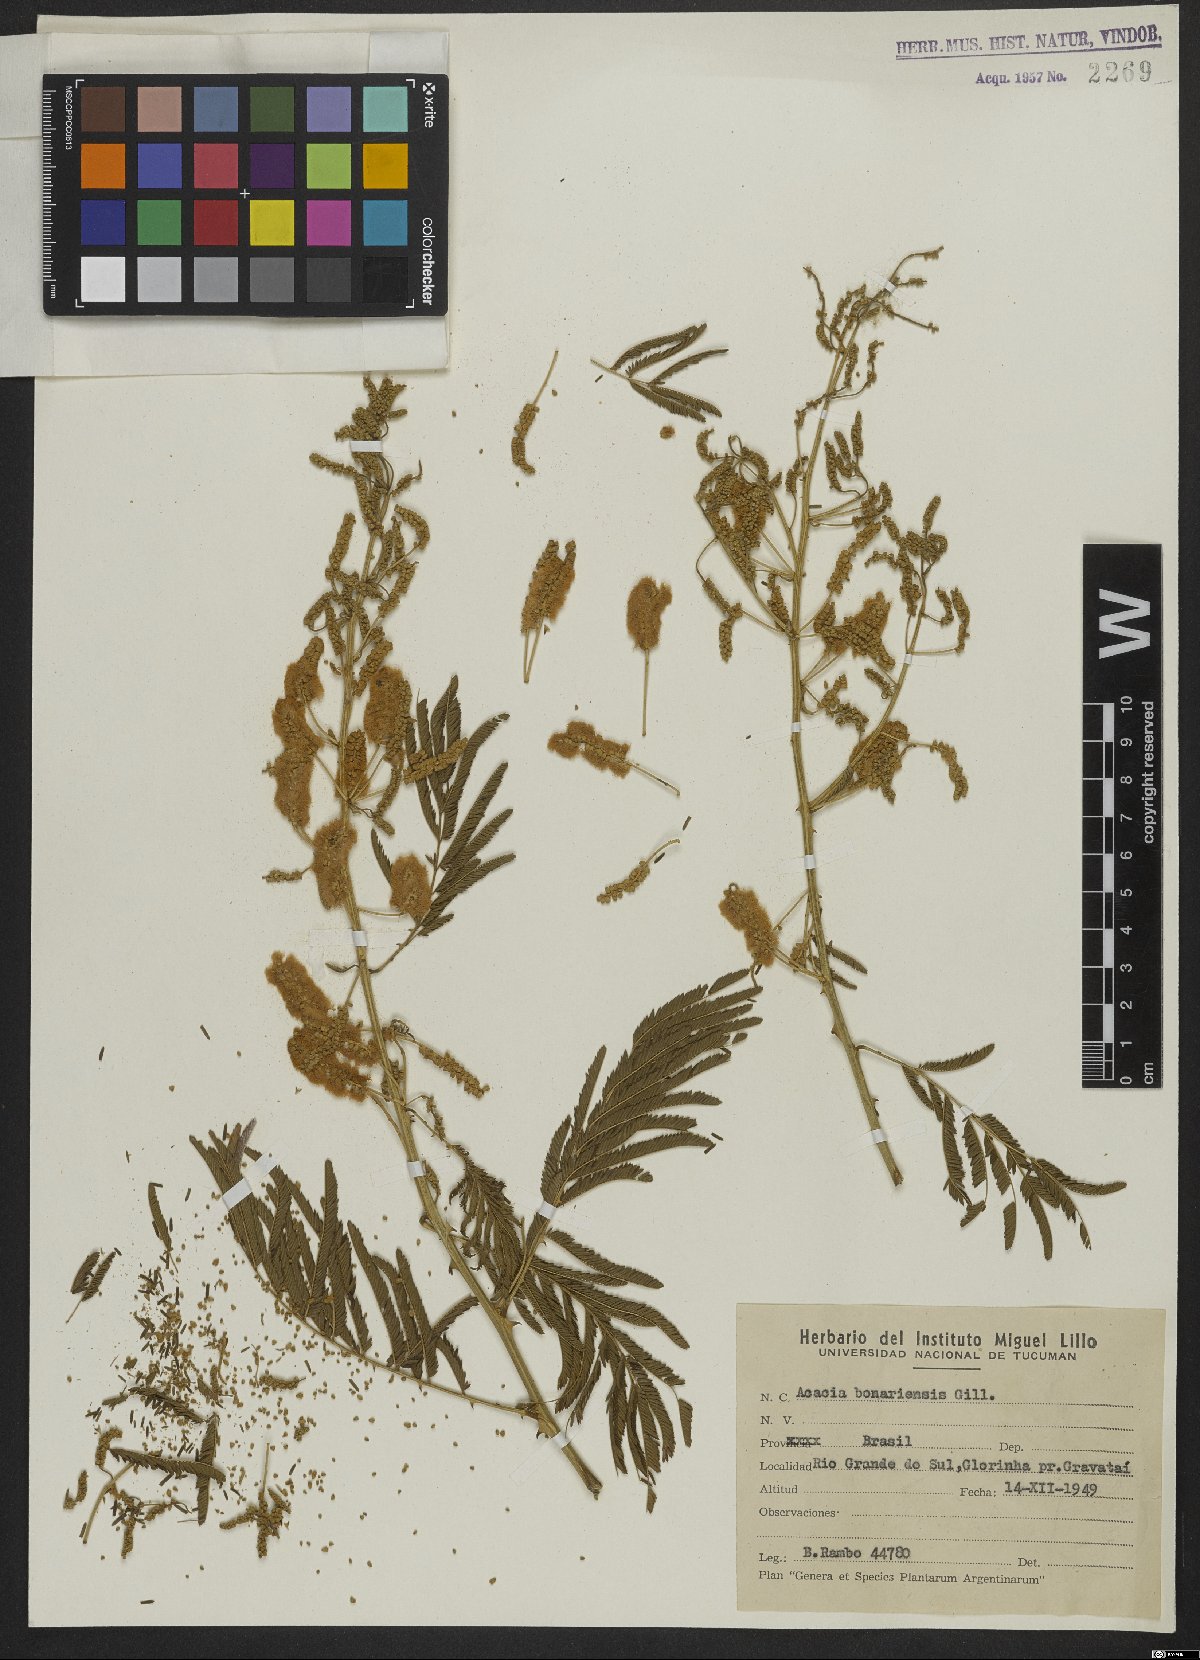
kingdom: Plantae
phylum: Tracheophyta
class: Magnoliopsida
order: Fabales
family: Fabaceae
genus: Senegalia
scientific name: Senegalia bonariensis
